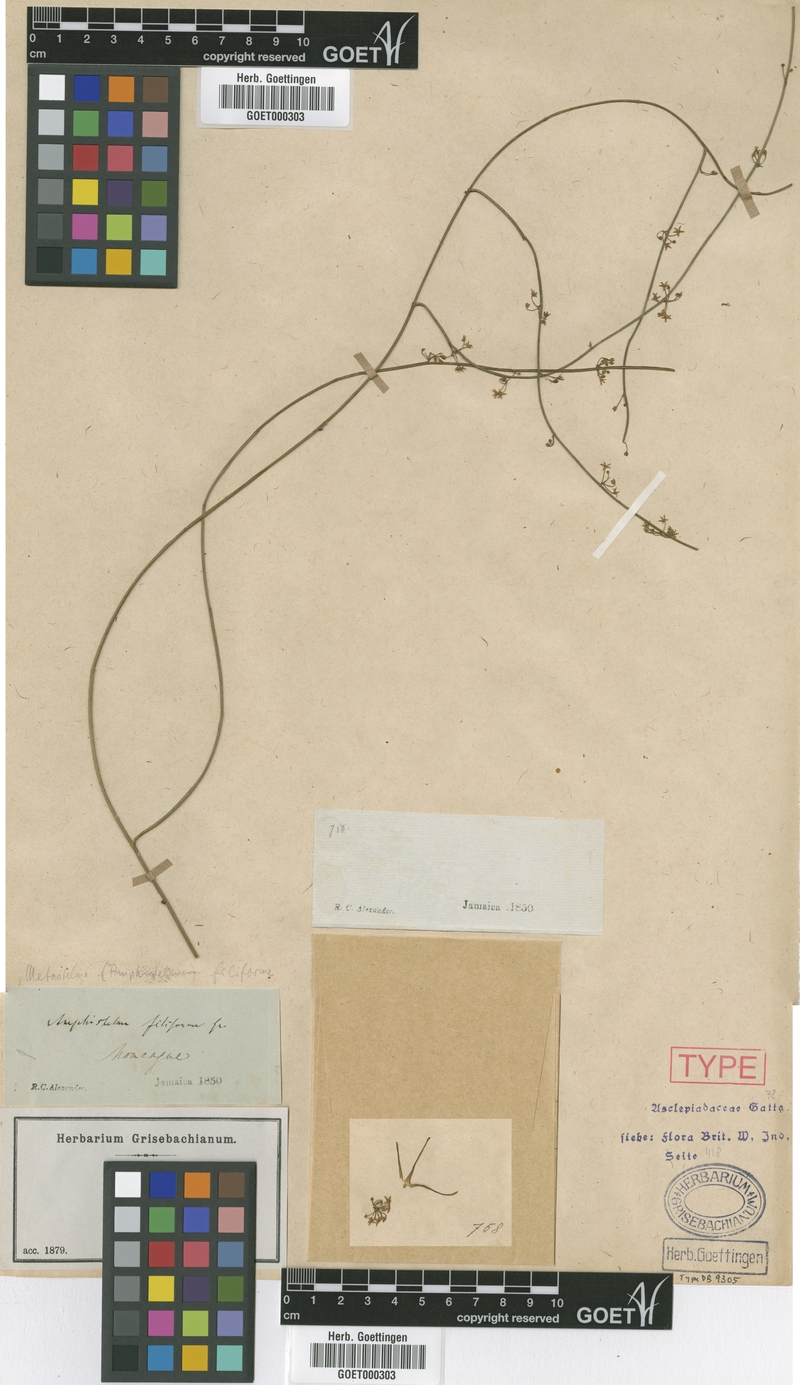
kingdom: Plantae
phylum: Tracheophyta
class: Magnoliopsida
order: Gentianales
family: Apocynaceae
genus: Orthosia
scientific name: Orthosia scoparia
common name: Leafless swallow-wort
